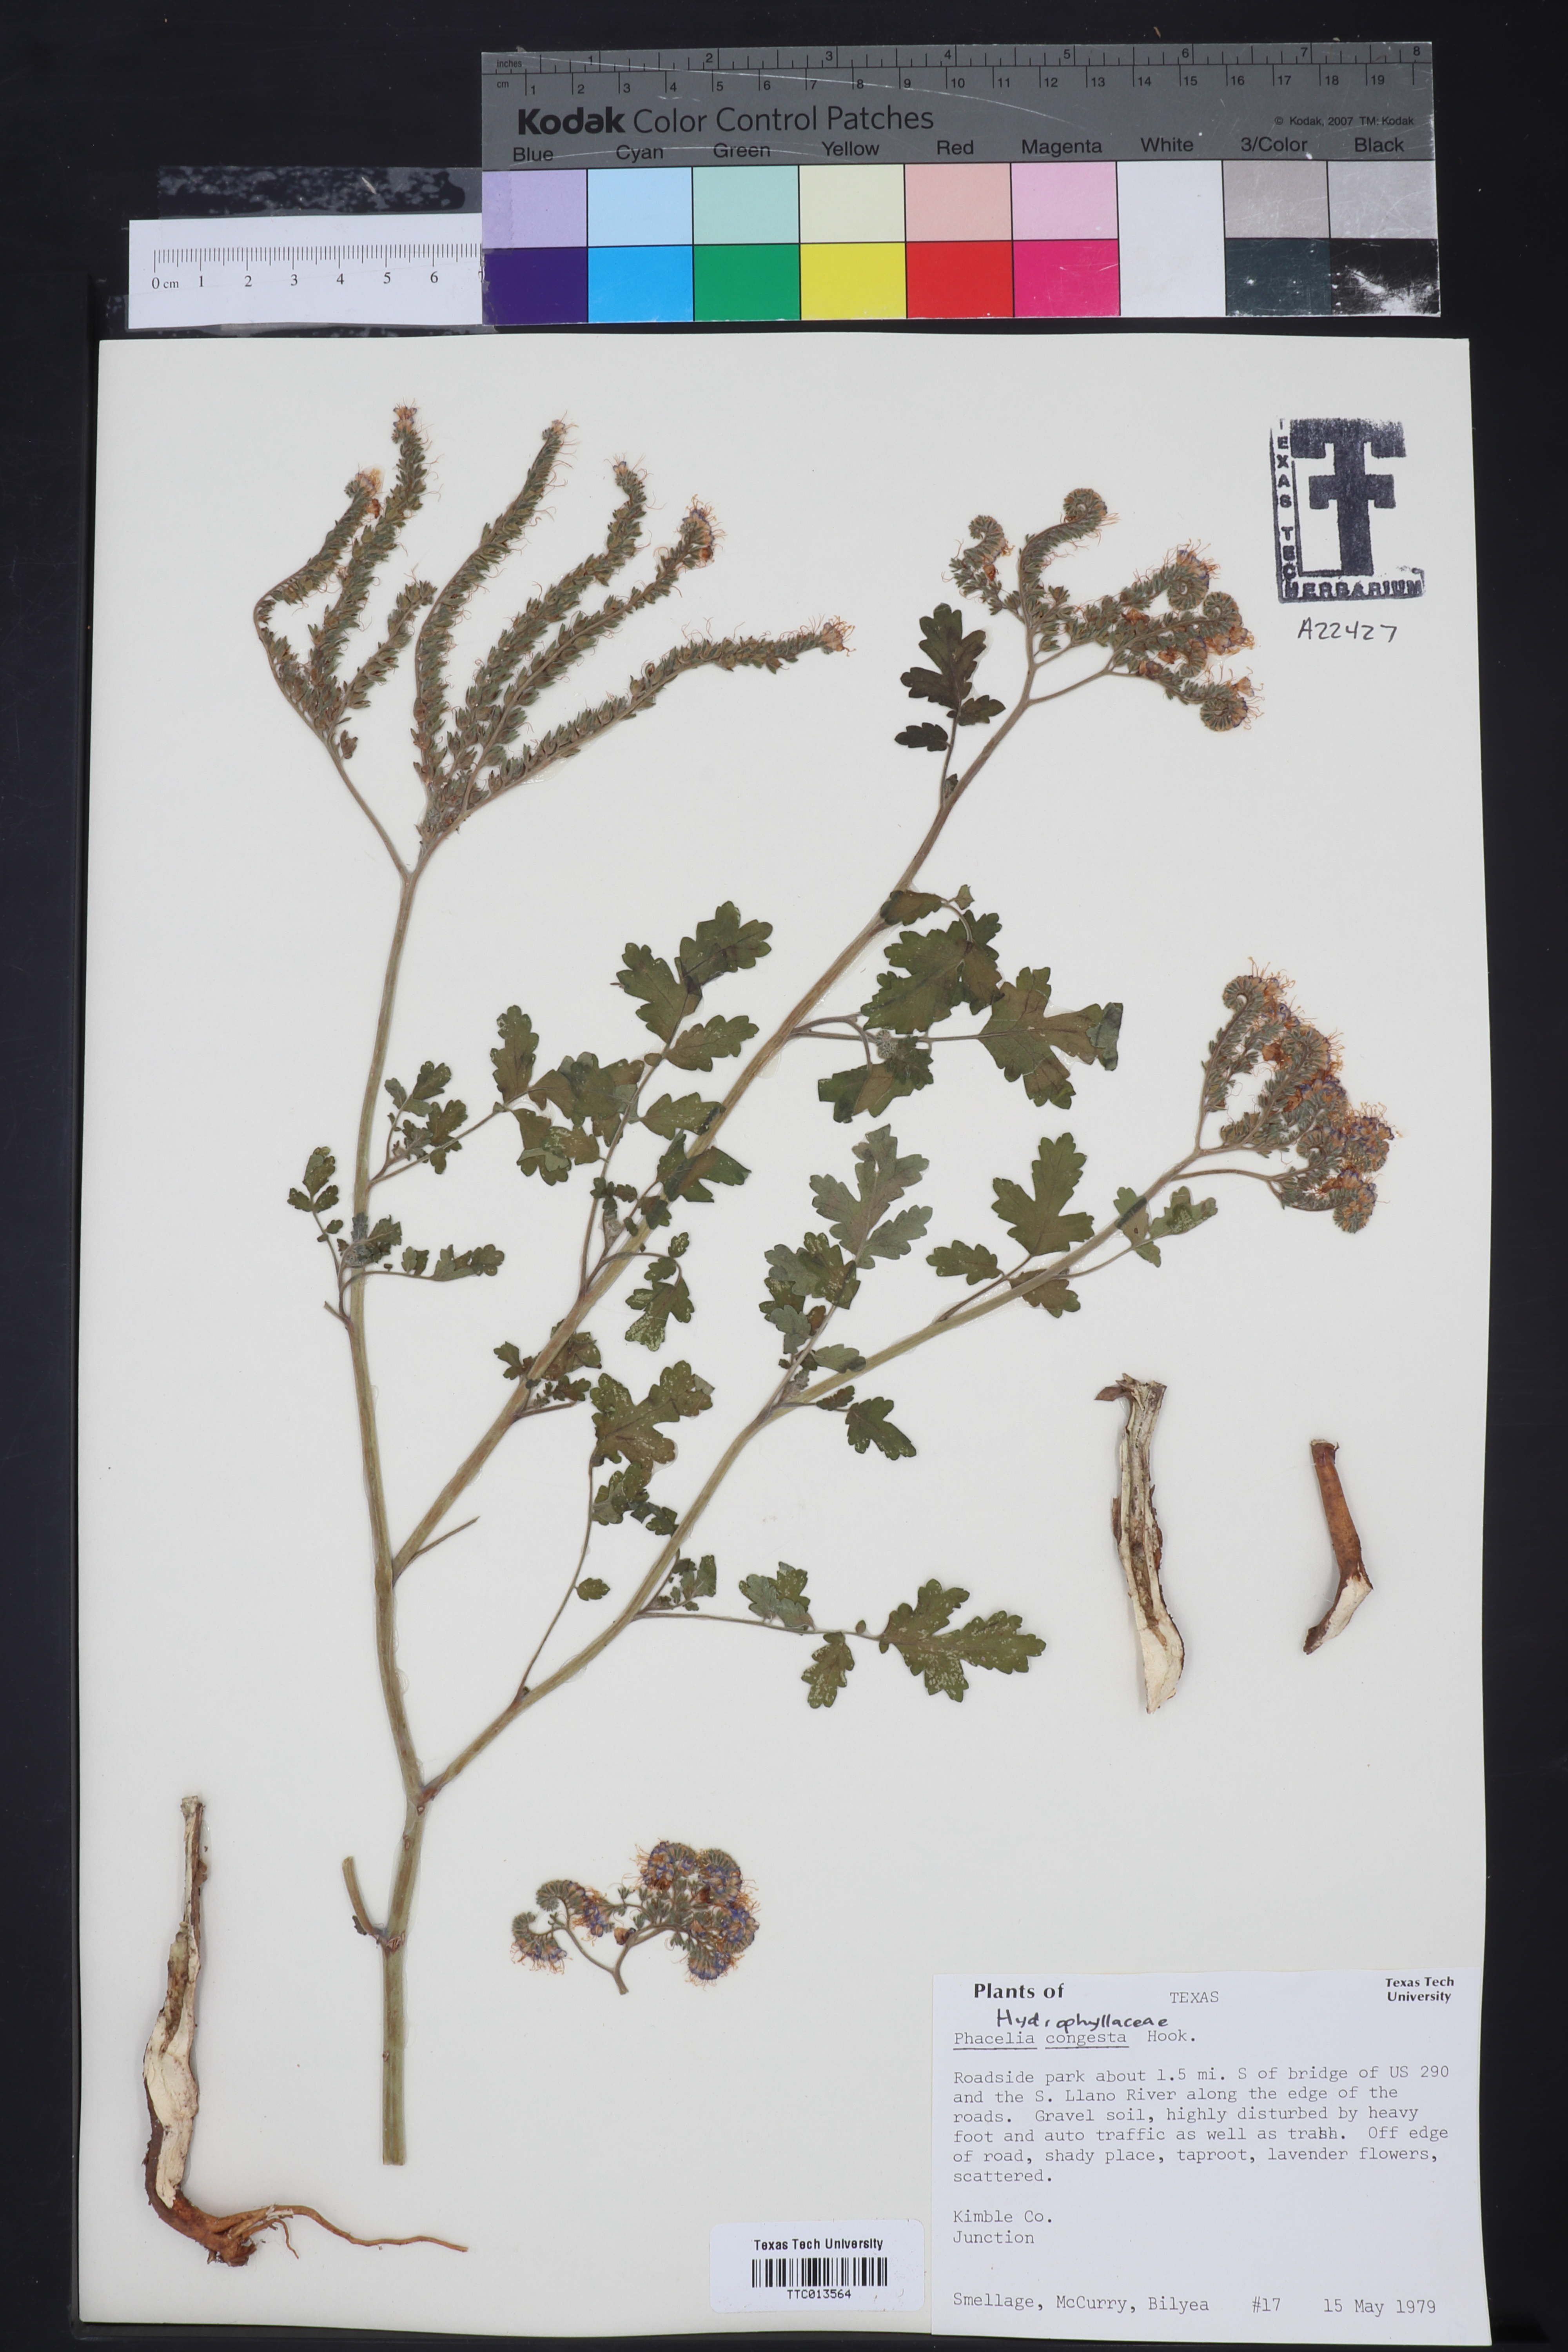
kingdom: Plantae
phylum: Tracheophyta
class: Magnoliopsida
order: Boraginales
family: Hydrophyllaceae
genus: Phacelia
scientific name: Phacelia congesta
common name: Blue curls
